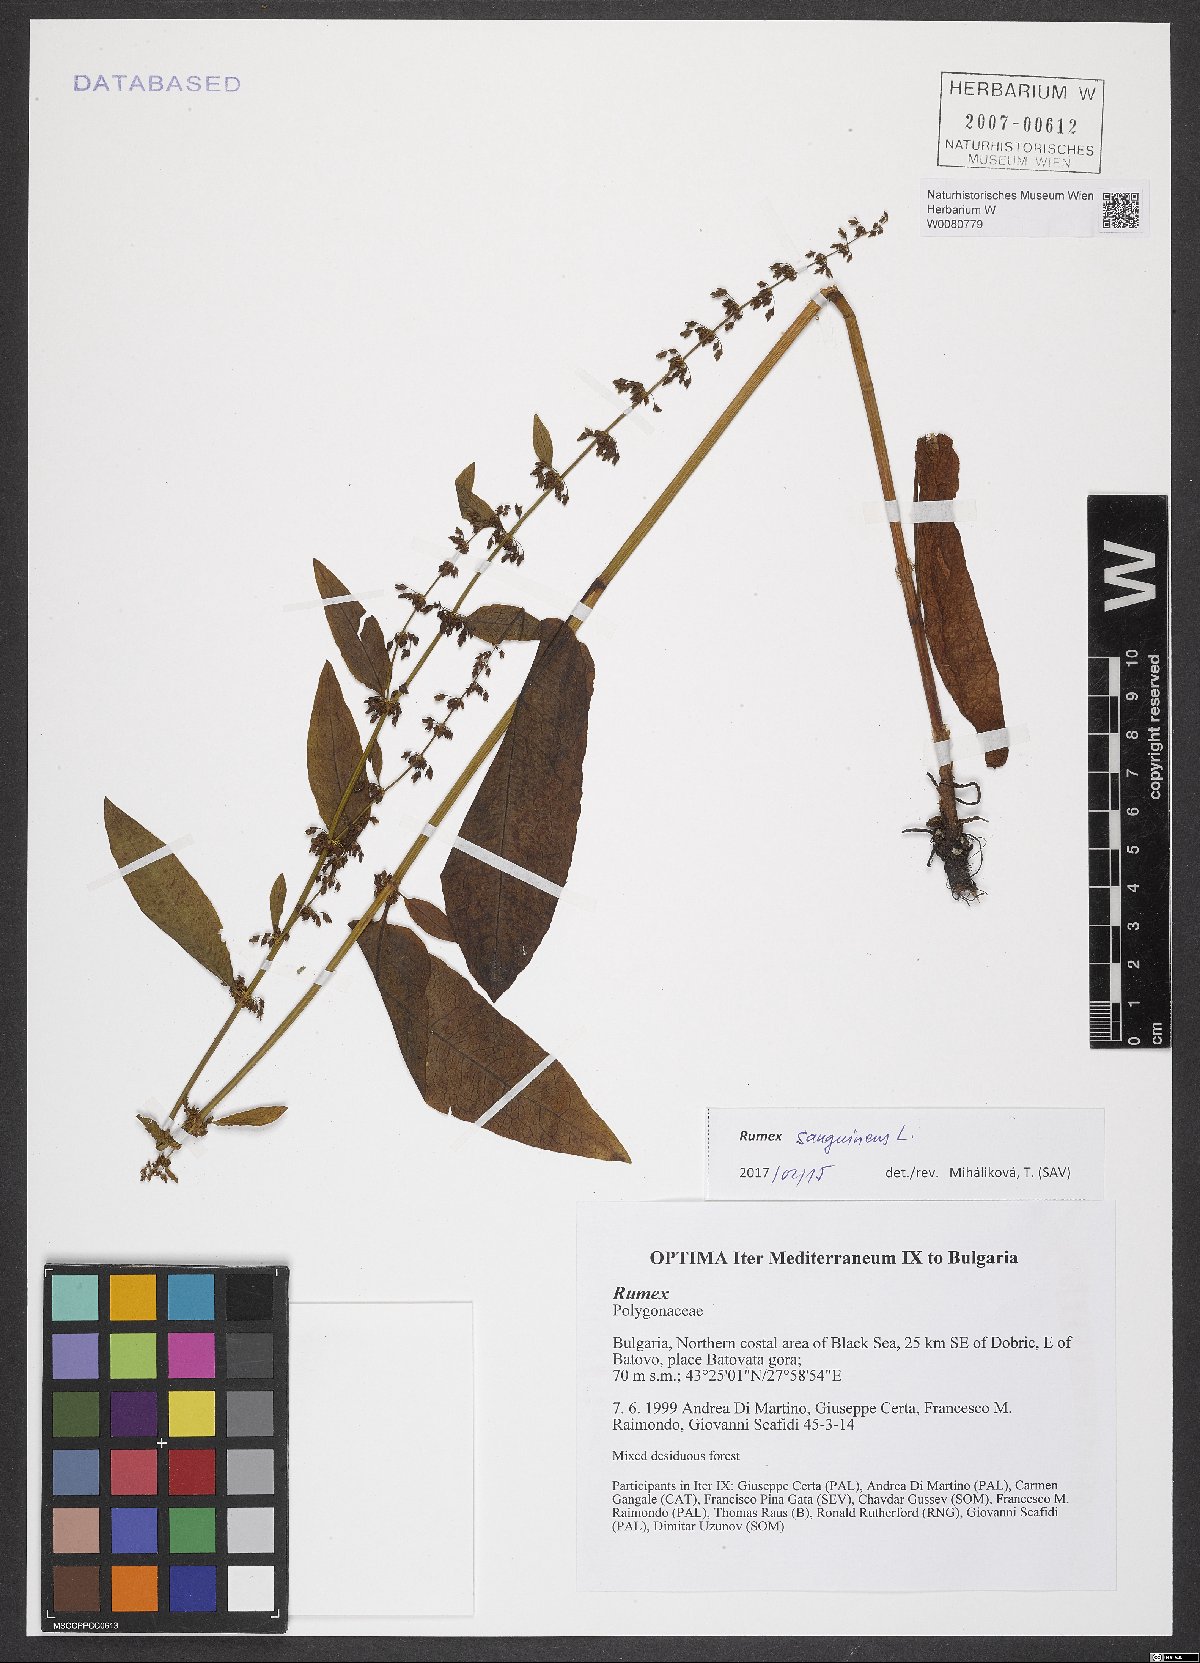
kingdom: Plantae
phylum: Tracheophyta
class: Magnoliopsida
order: Caryophyllales
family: Polygonaceae
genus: Rumex
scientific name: Rumex sanguineus
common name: Wood dock
